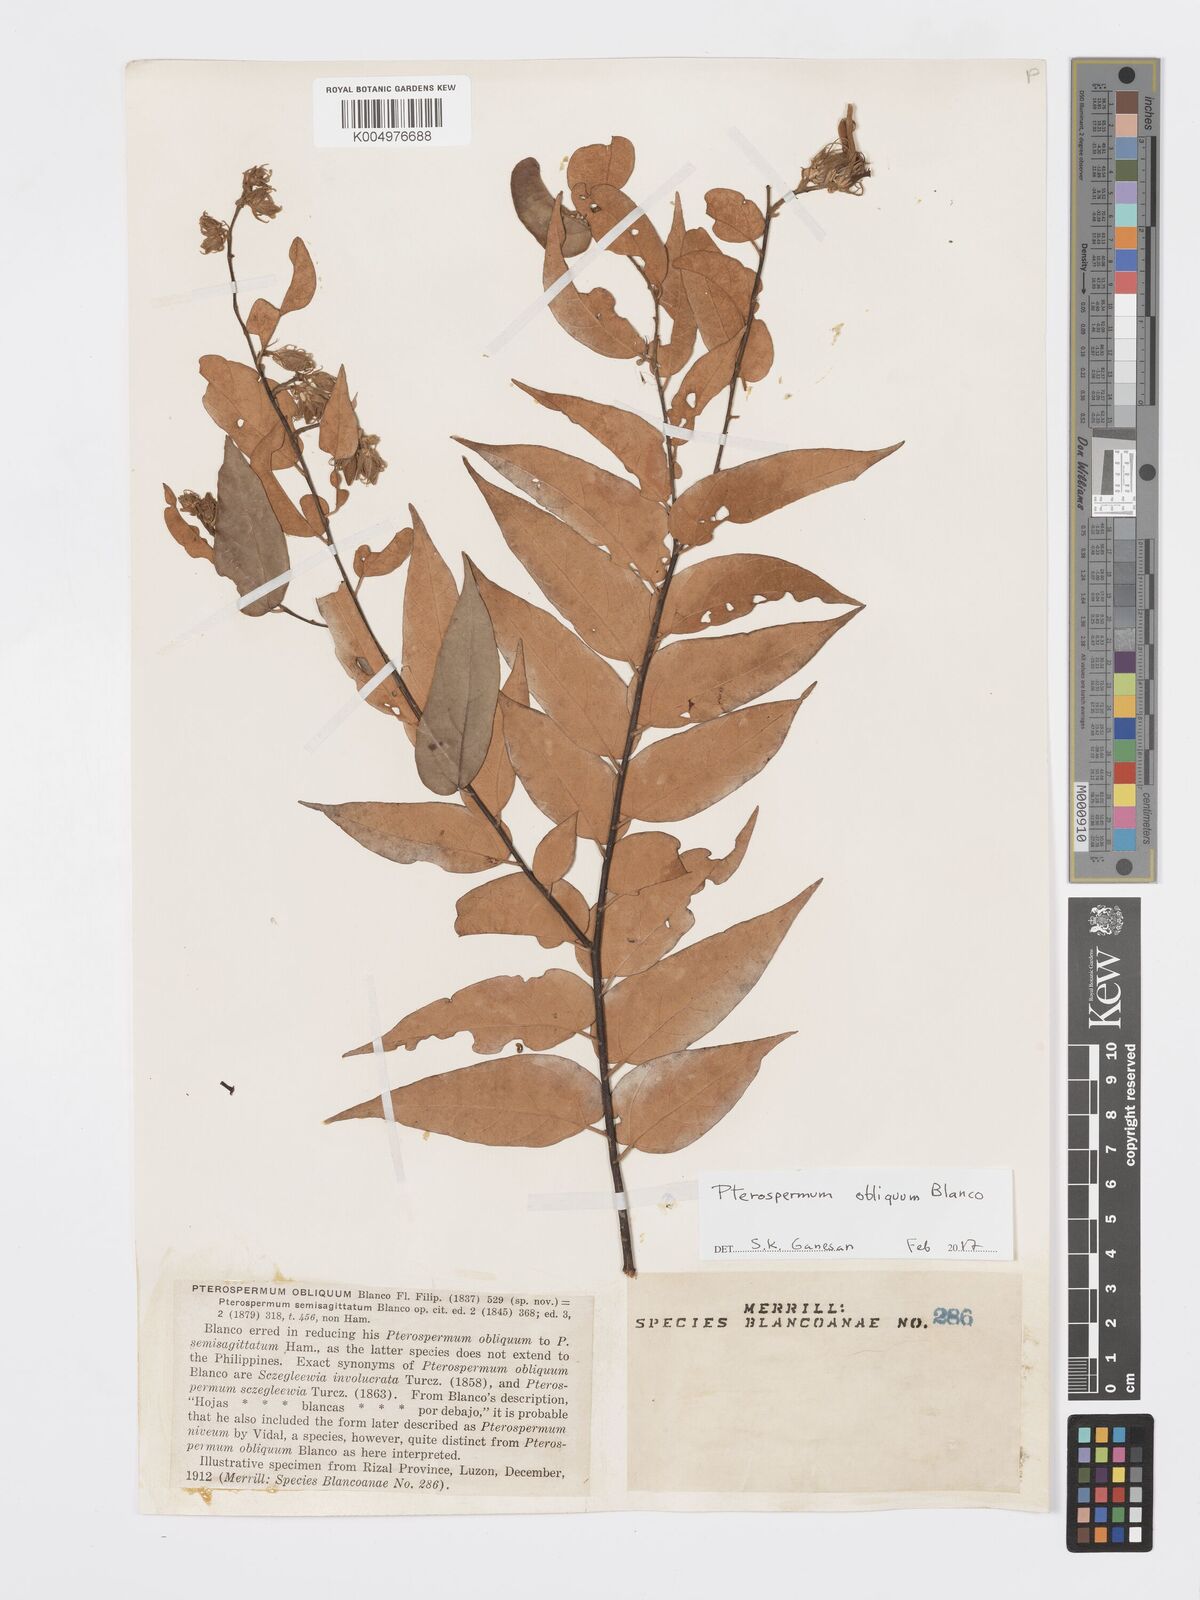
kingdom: Plantae
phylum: Tracheophyta
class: Magnoliopsida
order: Malvales
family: Malvaceae
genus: Pterospermum
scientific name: Pterospermum obliquum
